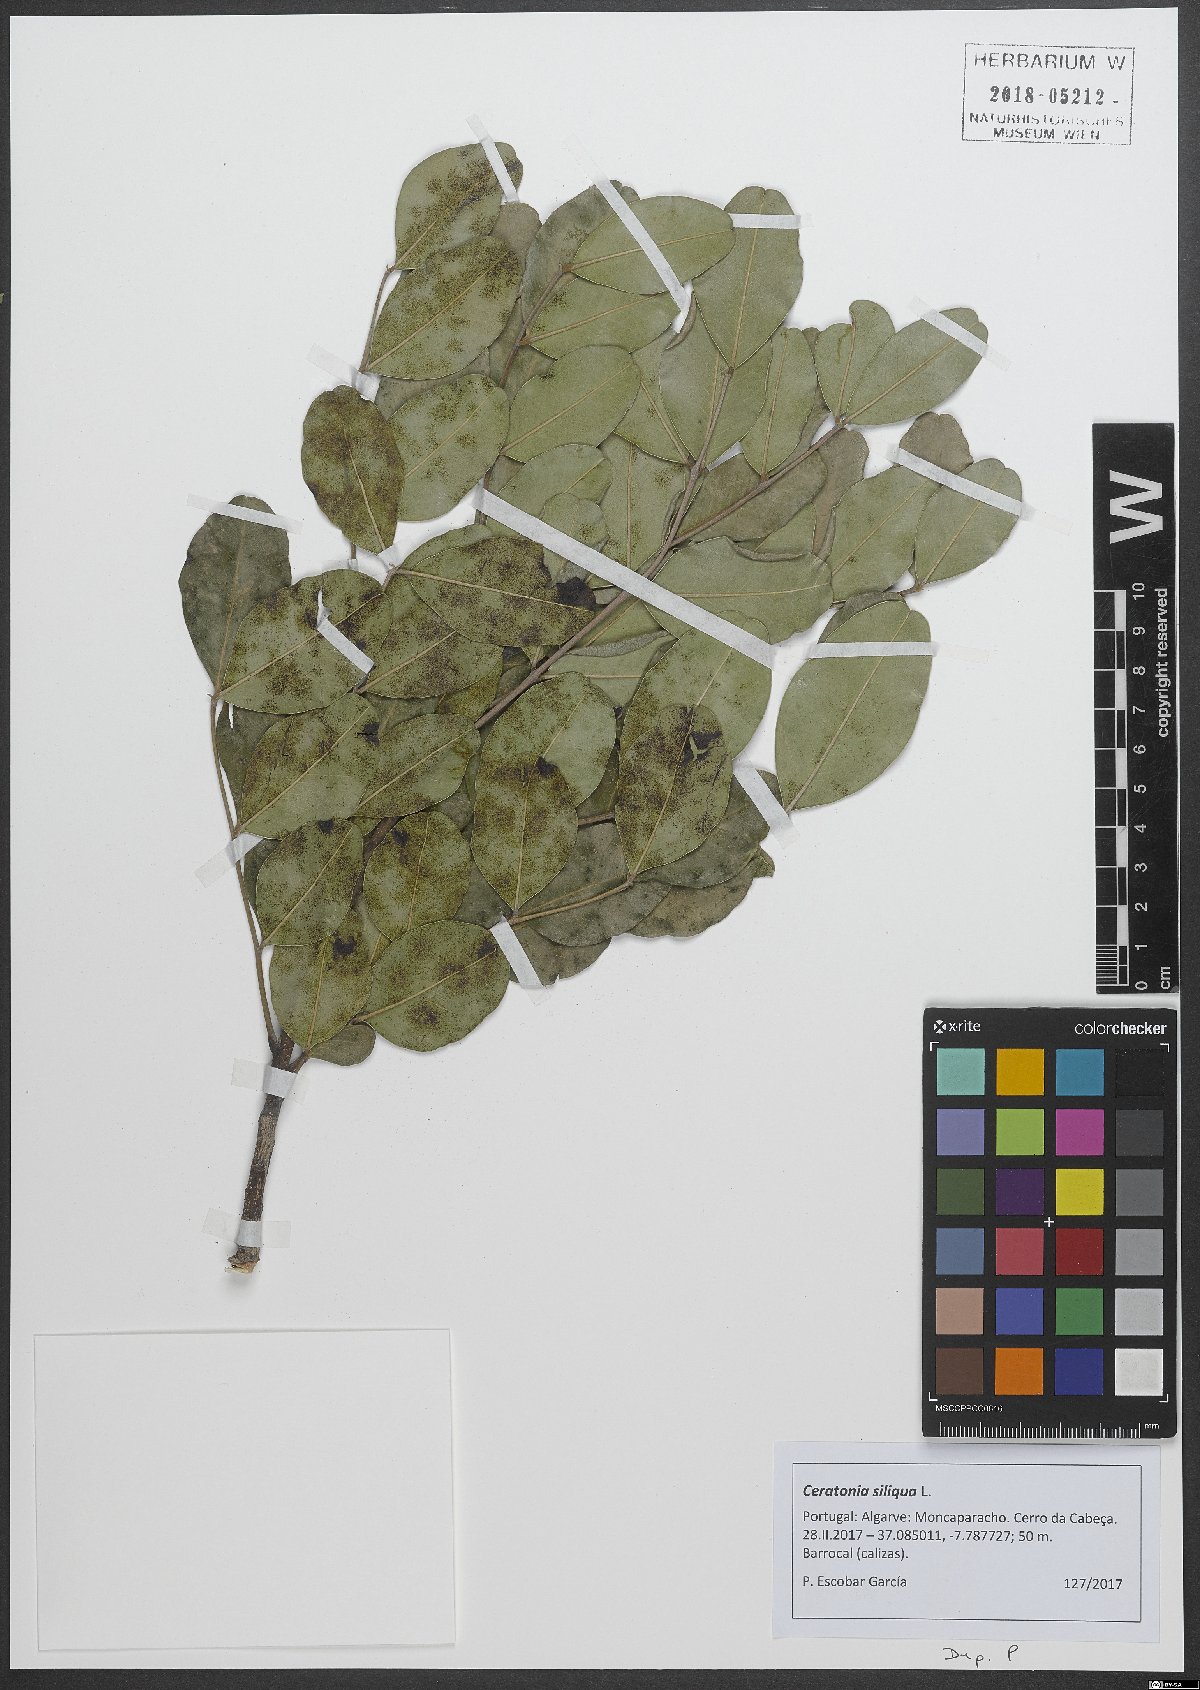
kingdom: Plantae
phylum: Tracheophyta
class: Magnoliopsida
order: Fabales
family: Fabaceae
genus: Ceratonia
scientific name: Ceratonia siliqua
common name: Carob
